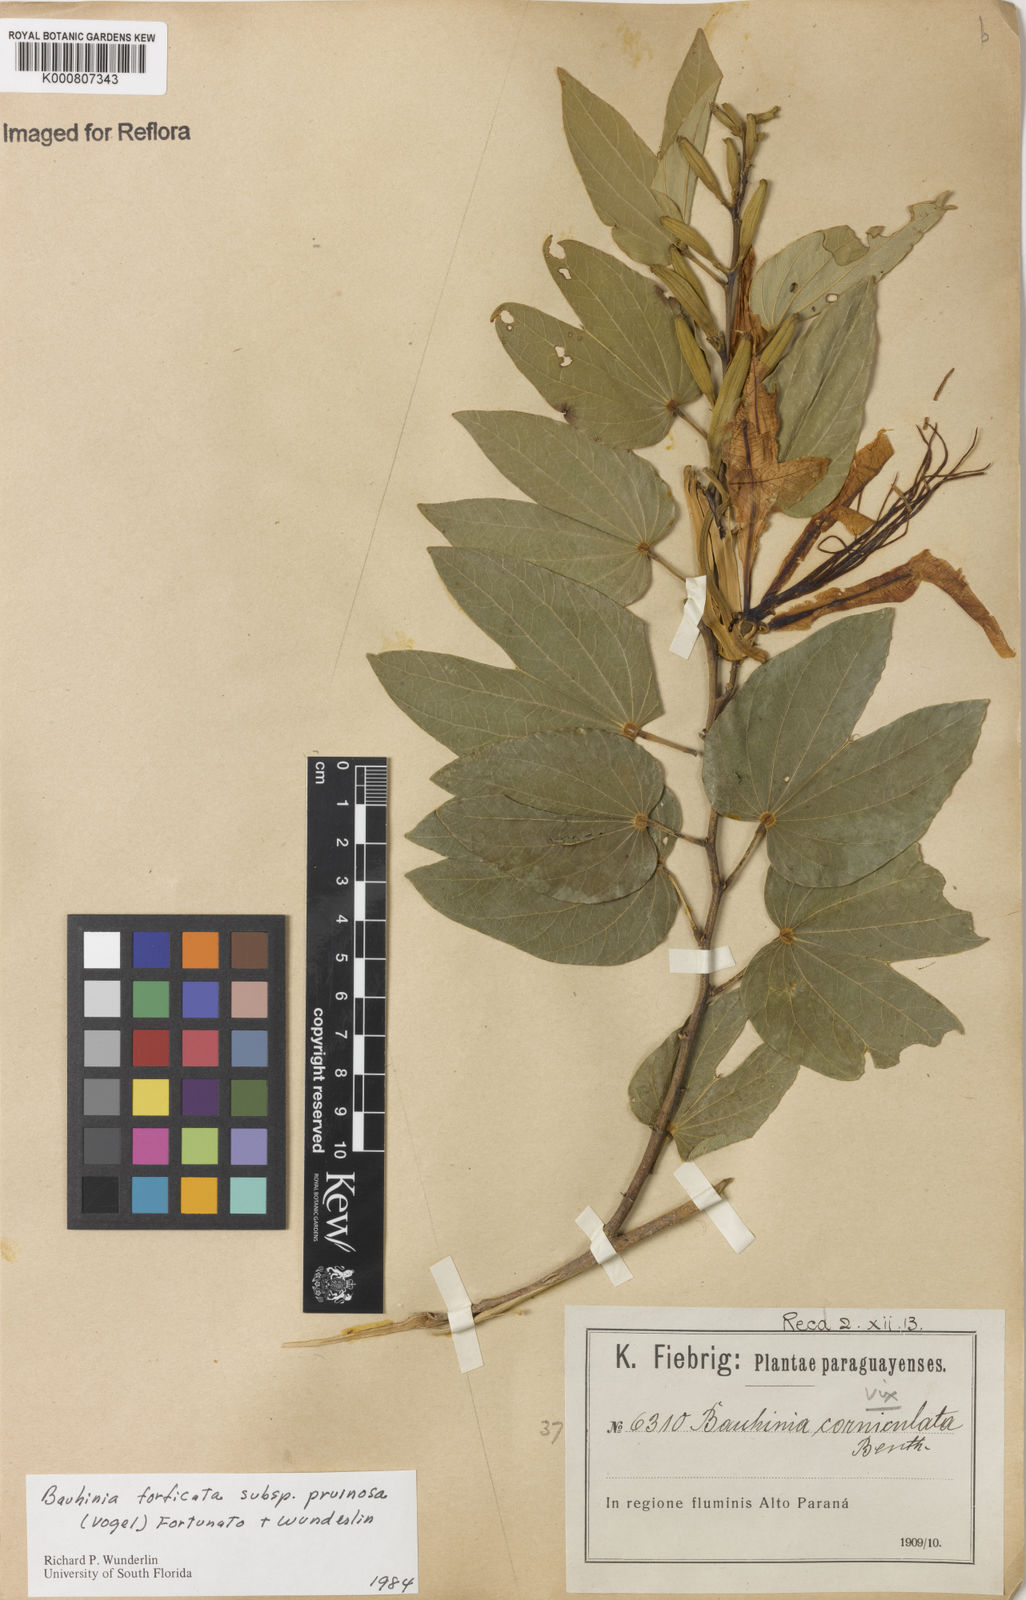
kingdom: Plantae
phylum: Tracheophyta
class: Magnoliopsida
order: Fabales
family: Fabaceae
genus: Bauhinia
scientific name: Bauhinia forficata
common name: Orchid tree
